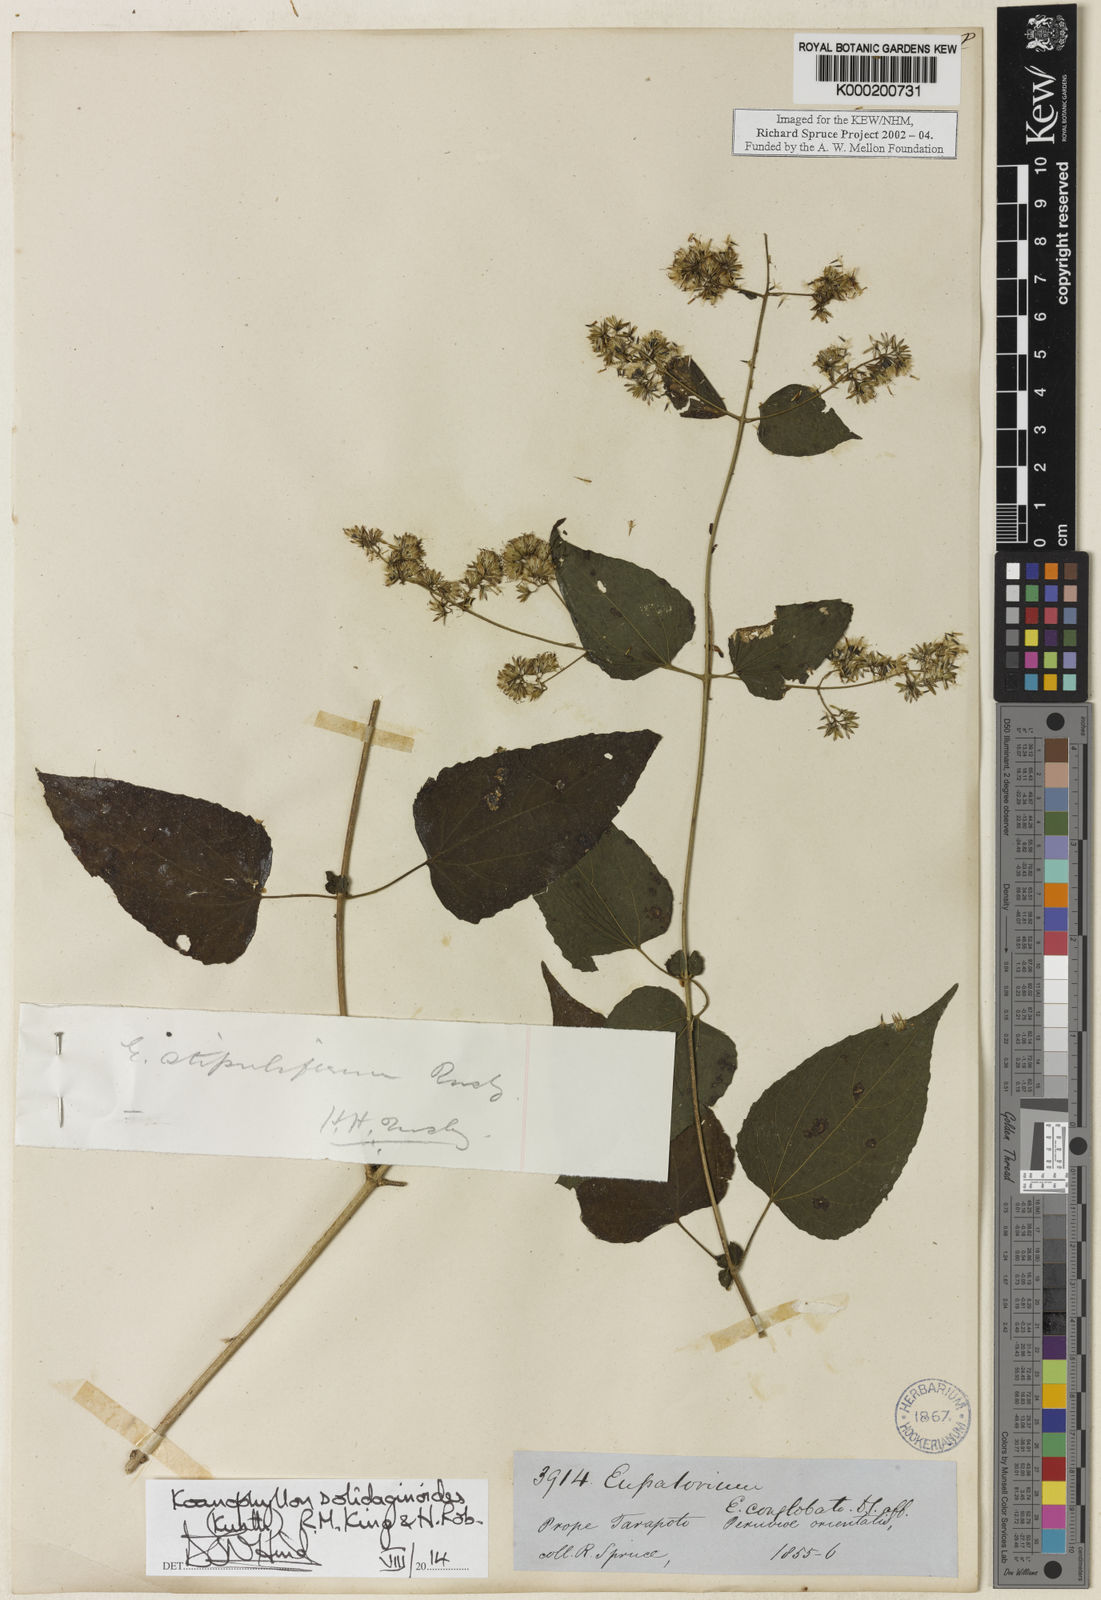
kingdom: Plantae
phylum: Tracheophyta
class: Magnoliopsida
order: Asterales
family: Asteraceae
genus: Koanophyllon
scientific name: Koanophyllon solidaginoides
